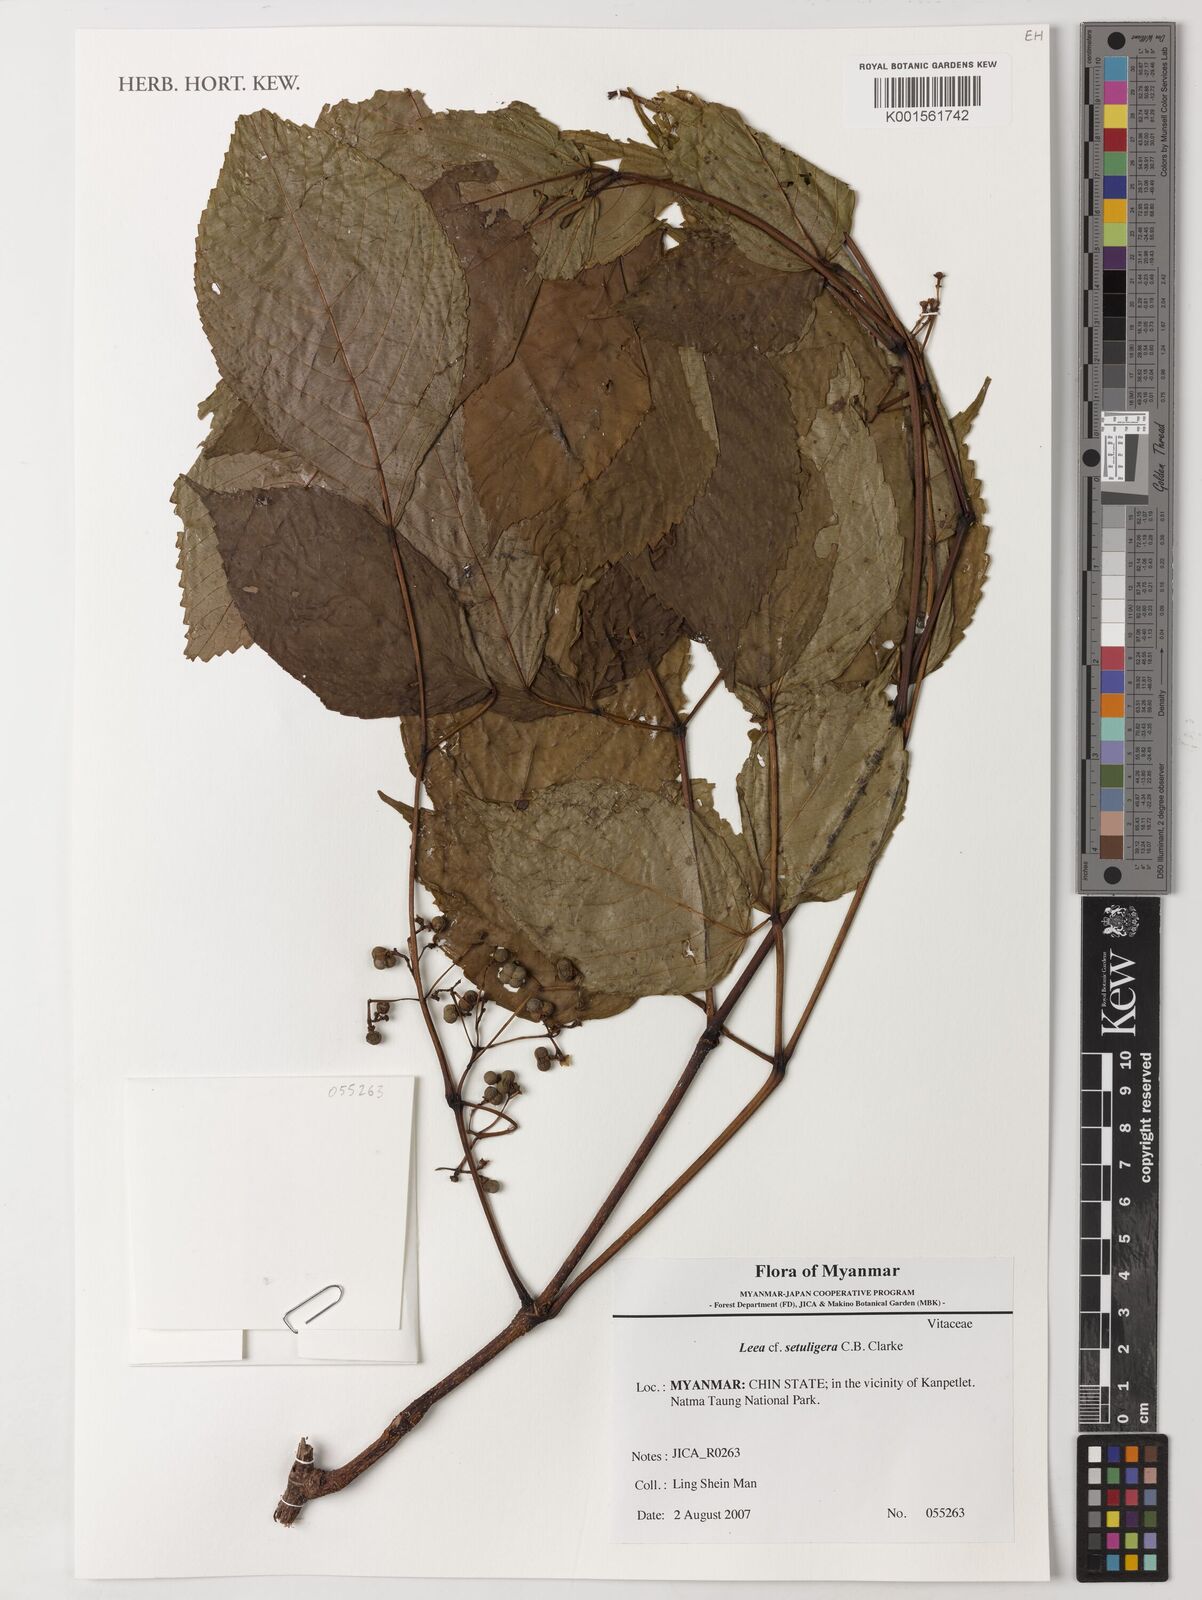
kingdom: Plantae
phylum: Tracheophyta
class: Magnoliopsida
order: Vitales
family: Vitaceae
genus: Leea
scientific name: Leea setuligera
